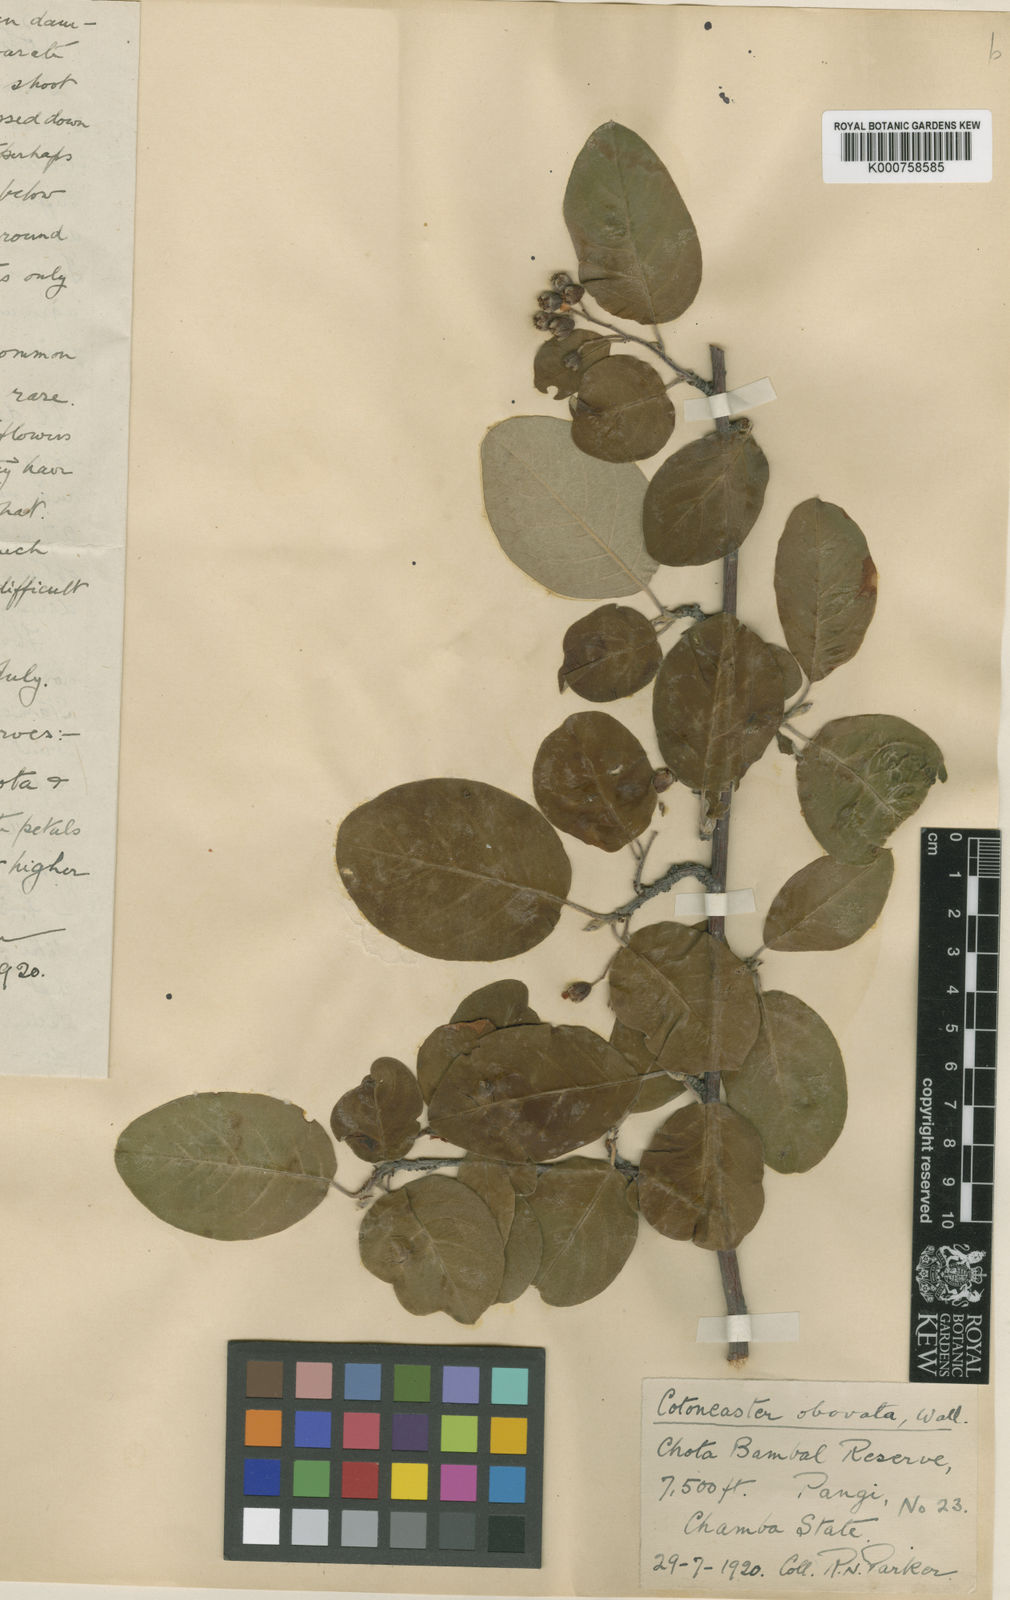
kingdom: Plantae
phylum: Tracheophyta
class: Magnoliopsida
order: Rosales
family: Rosaceae
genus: Cotoneaster
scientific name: Cotoneaster obovatus
